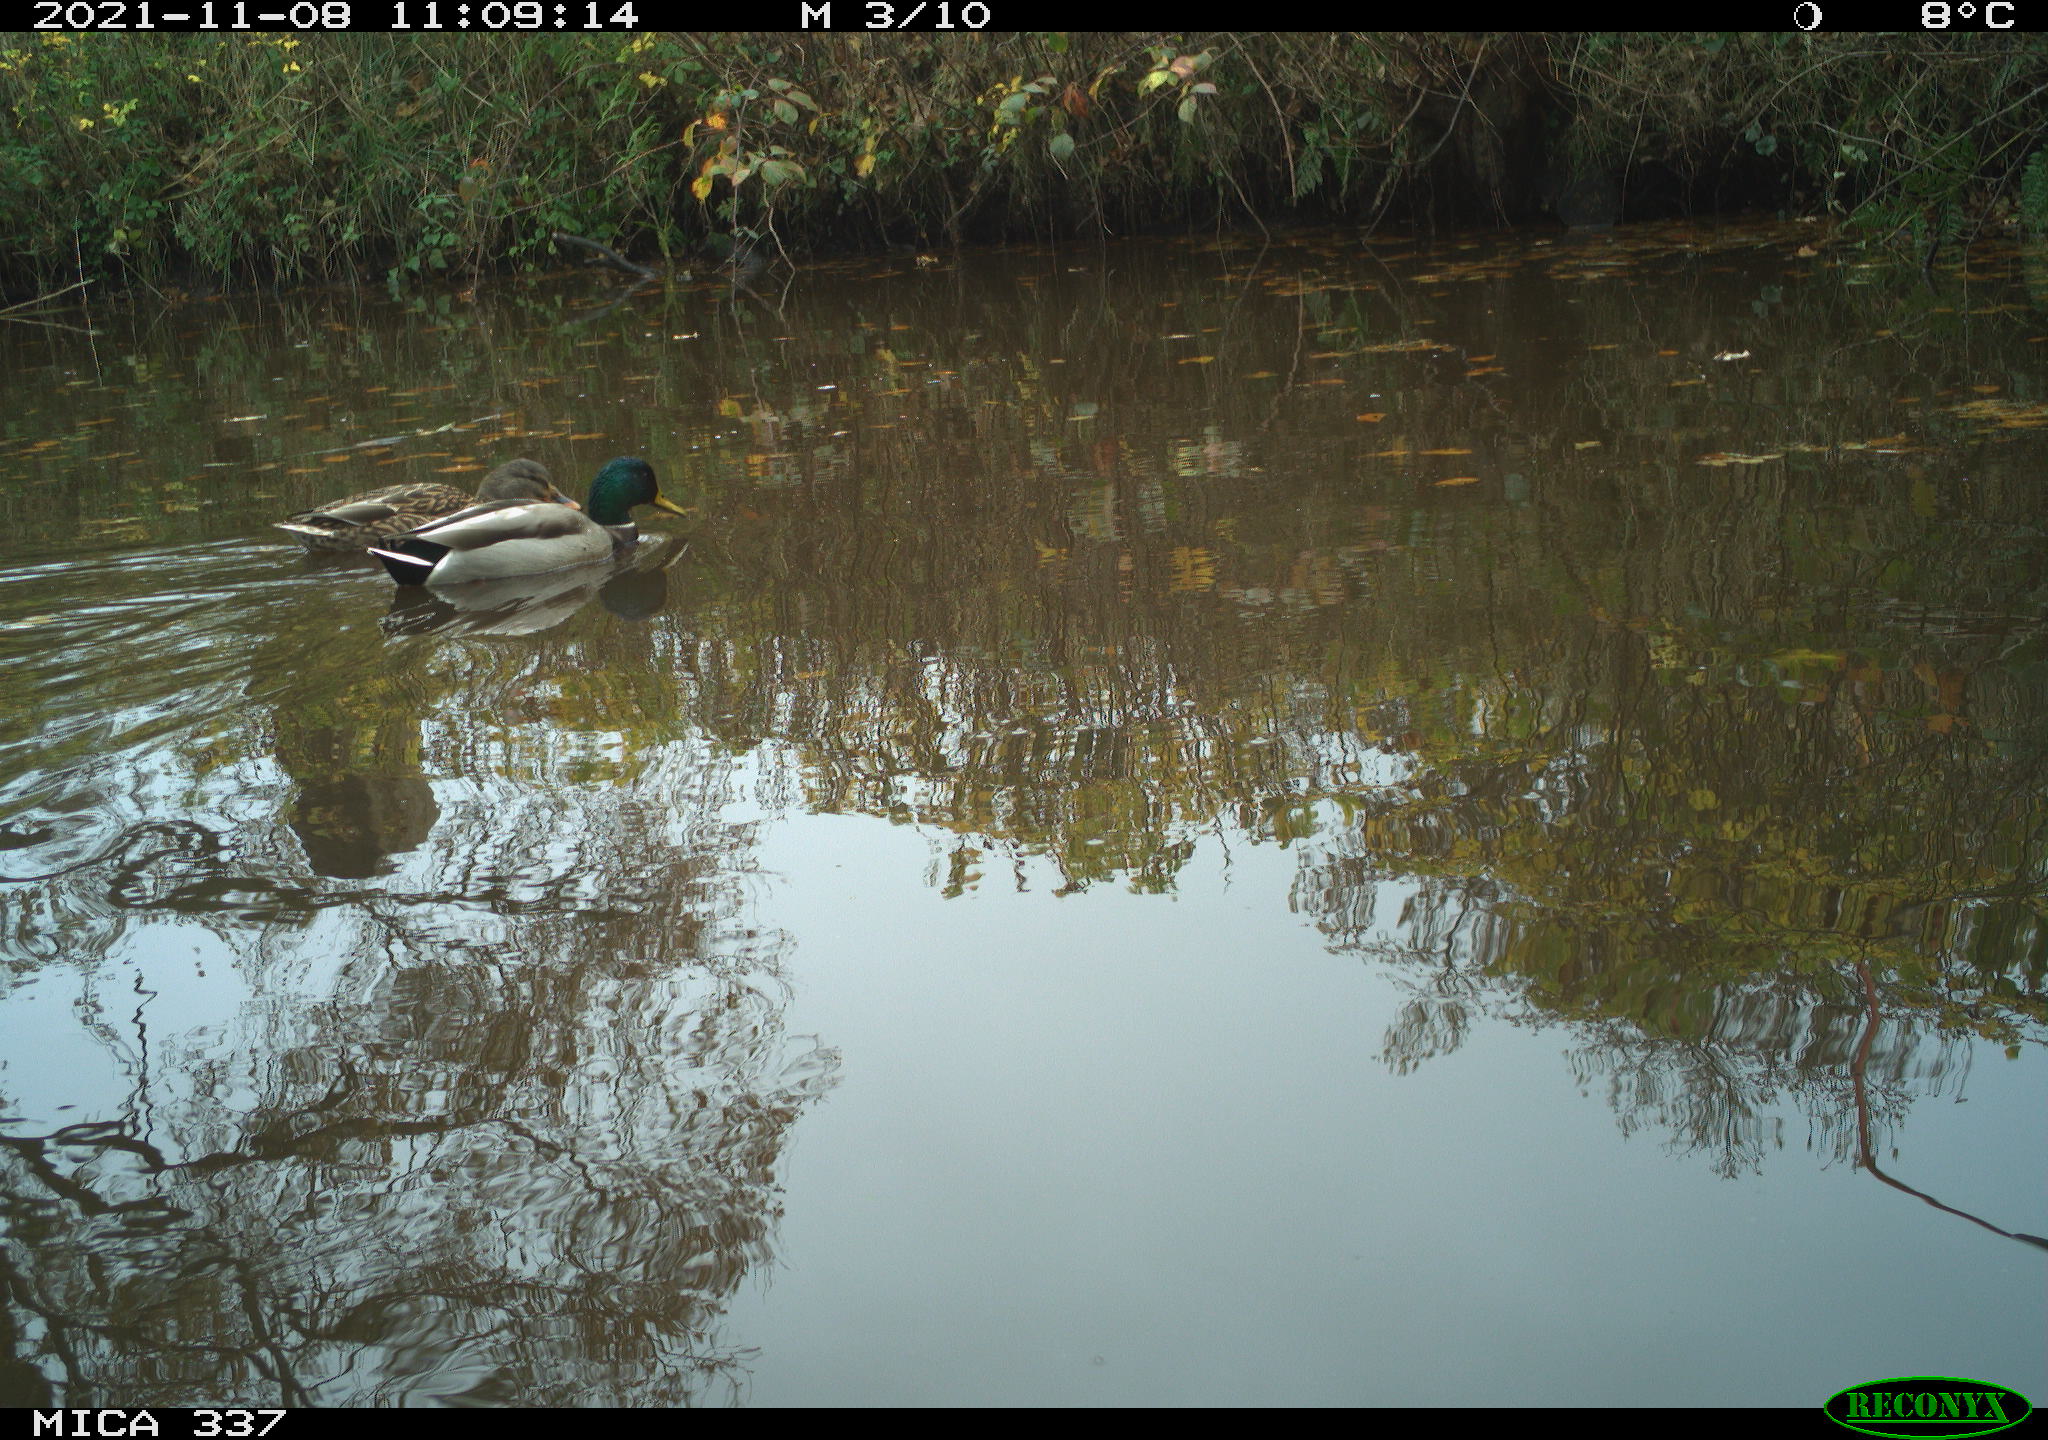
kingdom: Animalia
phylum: Chordata
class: Aves
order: Anseriformes
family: Anatidae
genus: Anas
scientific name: Anas platyrhynchos
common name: Mallard
